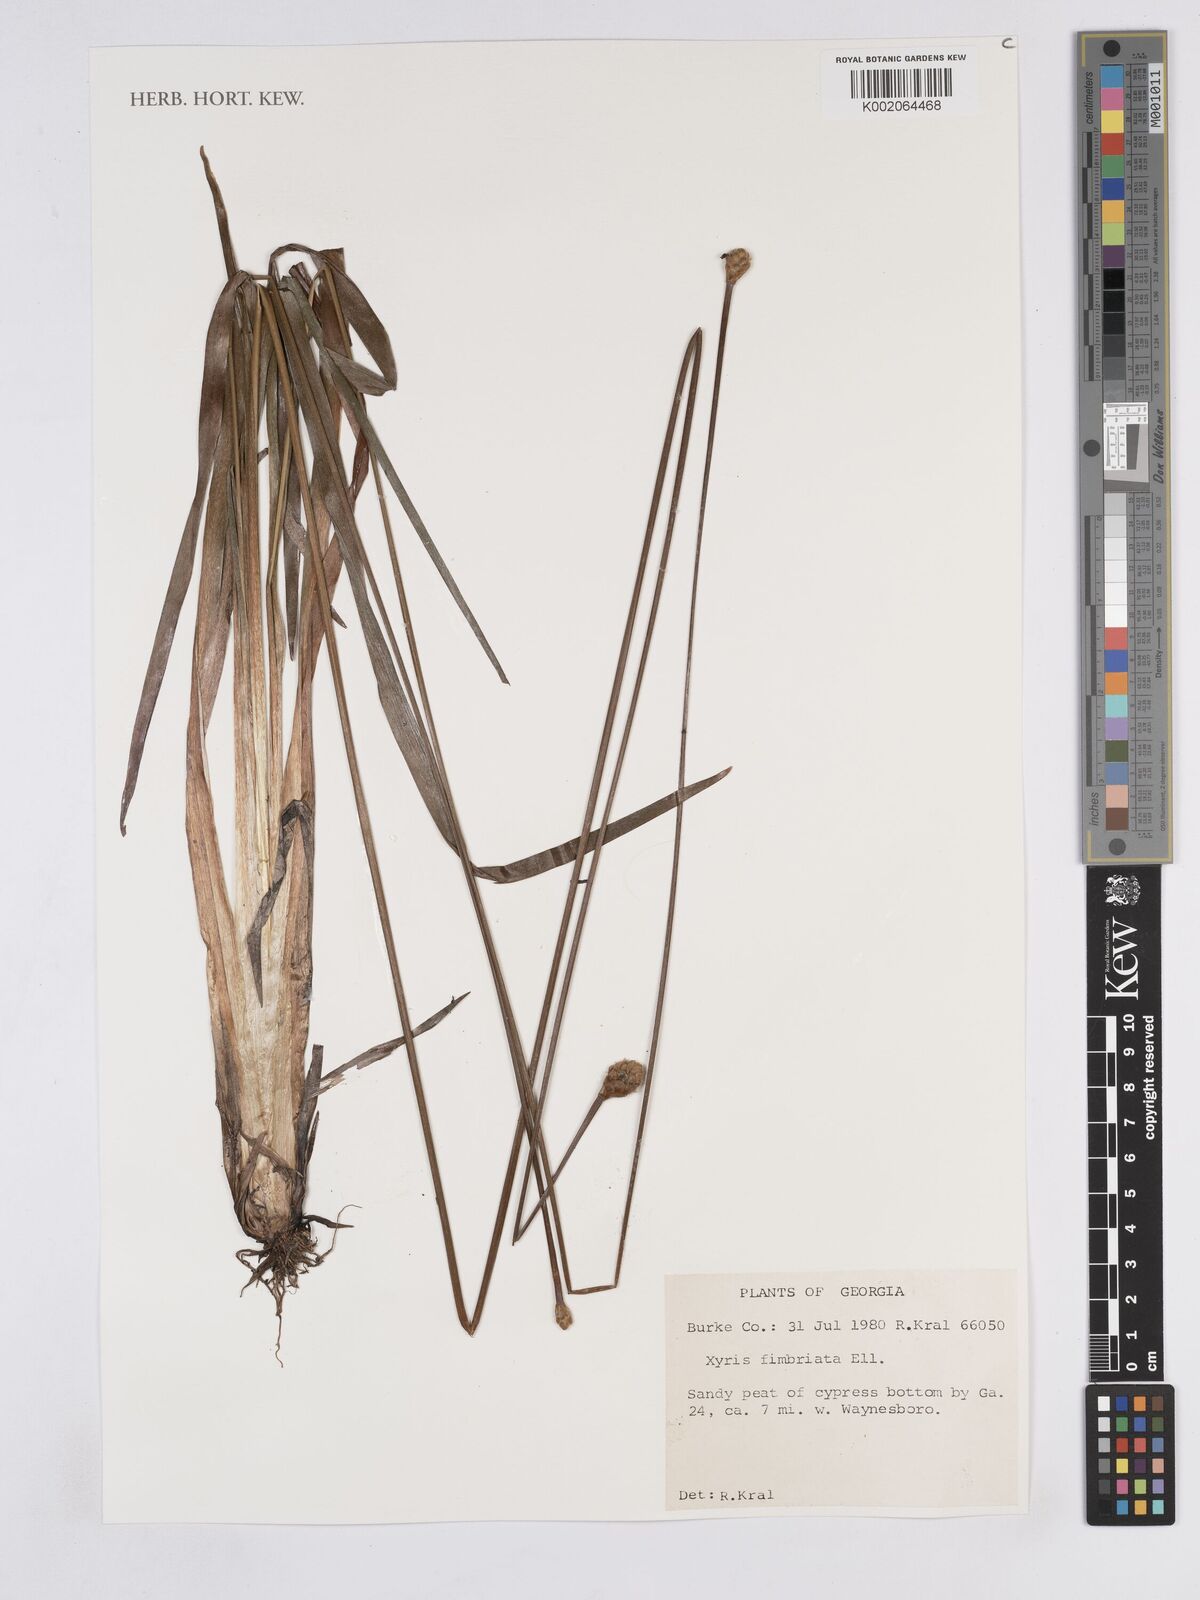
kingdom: Plantae
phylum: Tracheophyta
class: Liliopsida
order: Poales
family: Xyridaceae
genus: Xyris
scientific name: Xyris fimbriata
